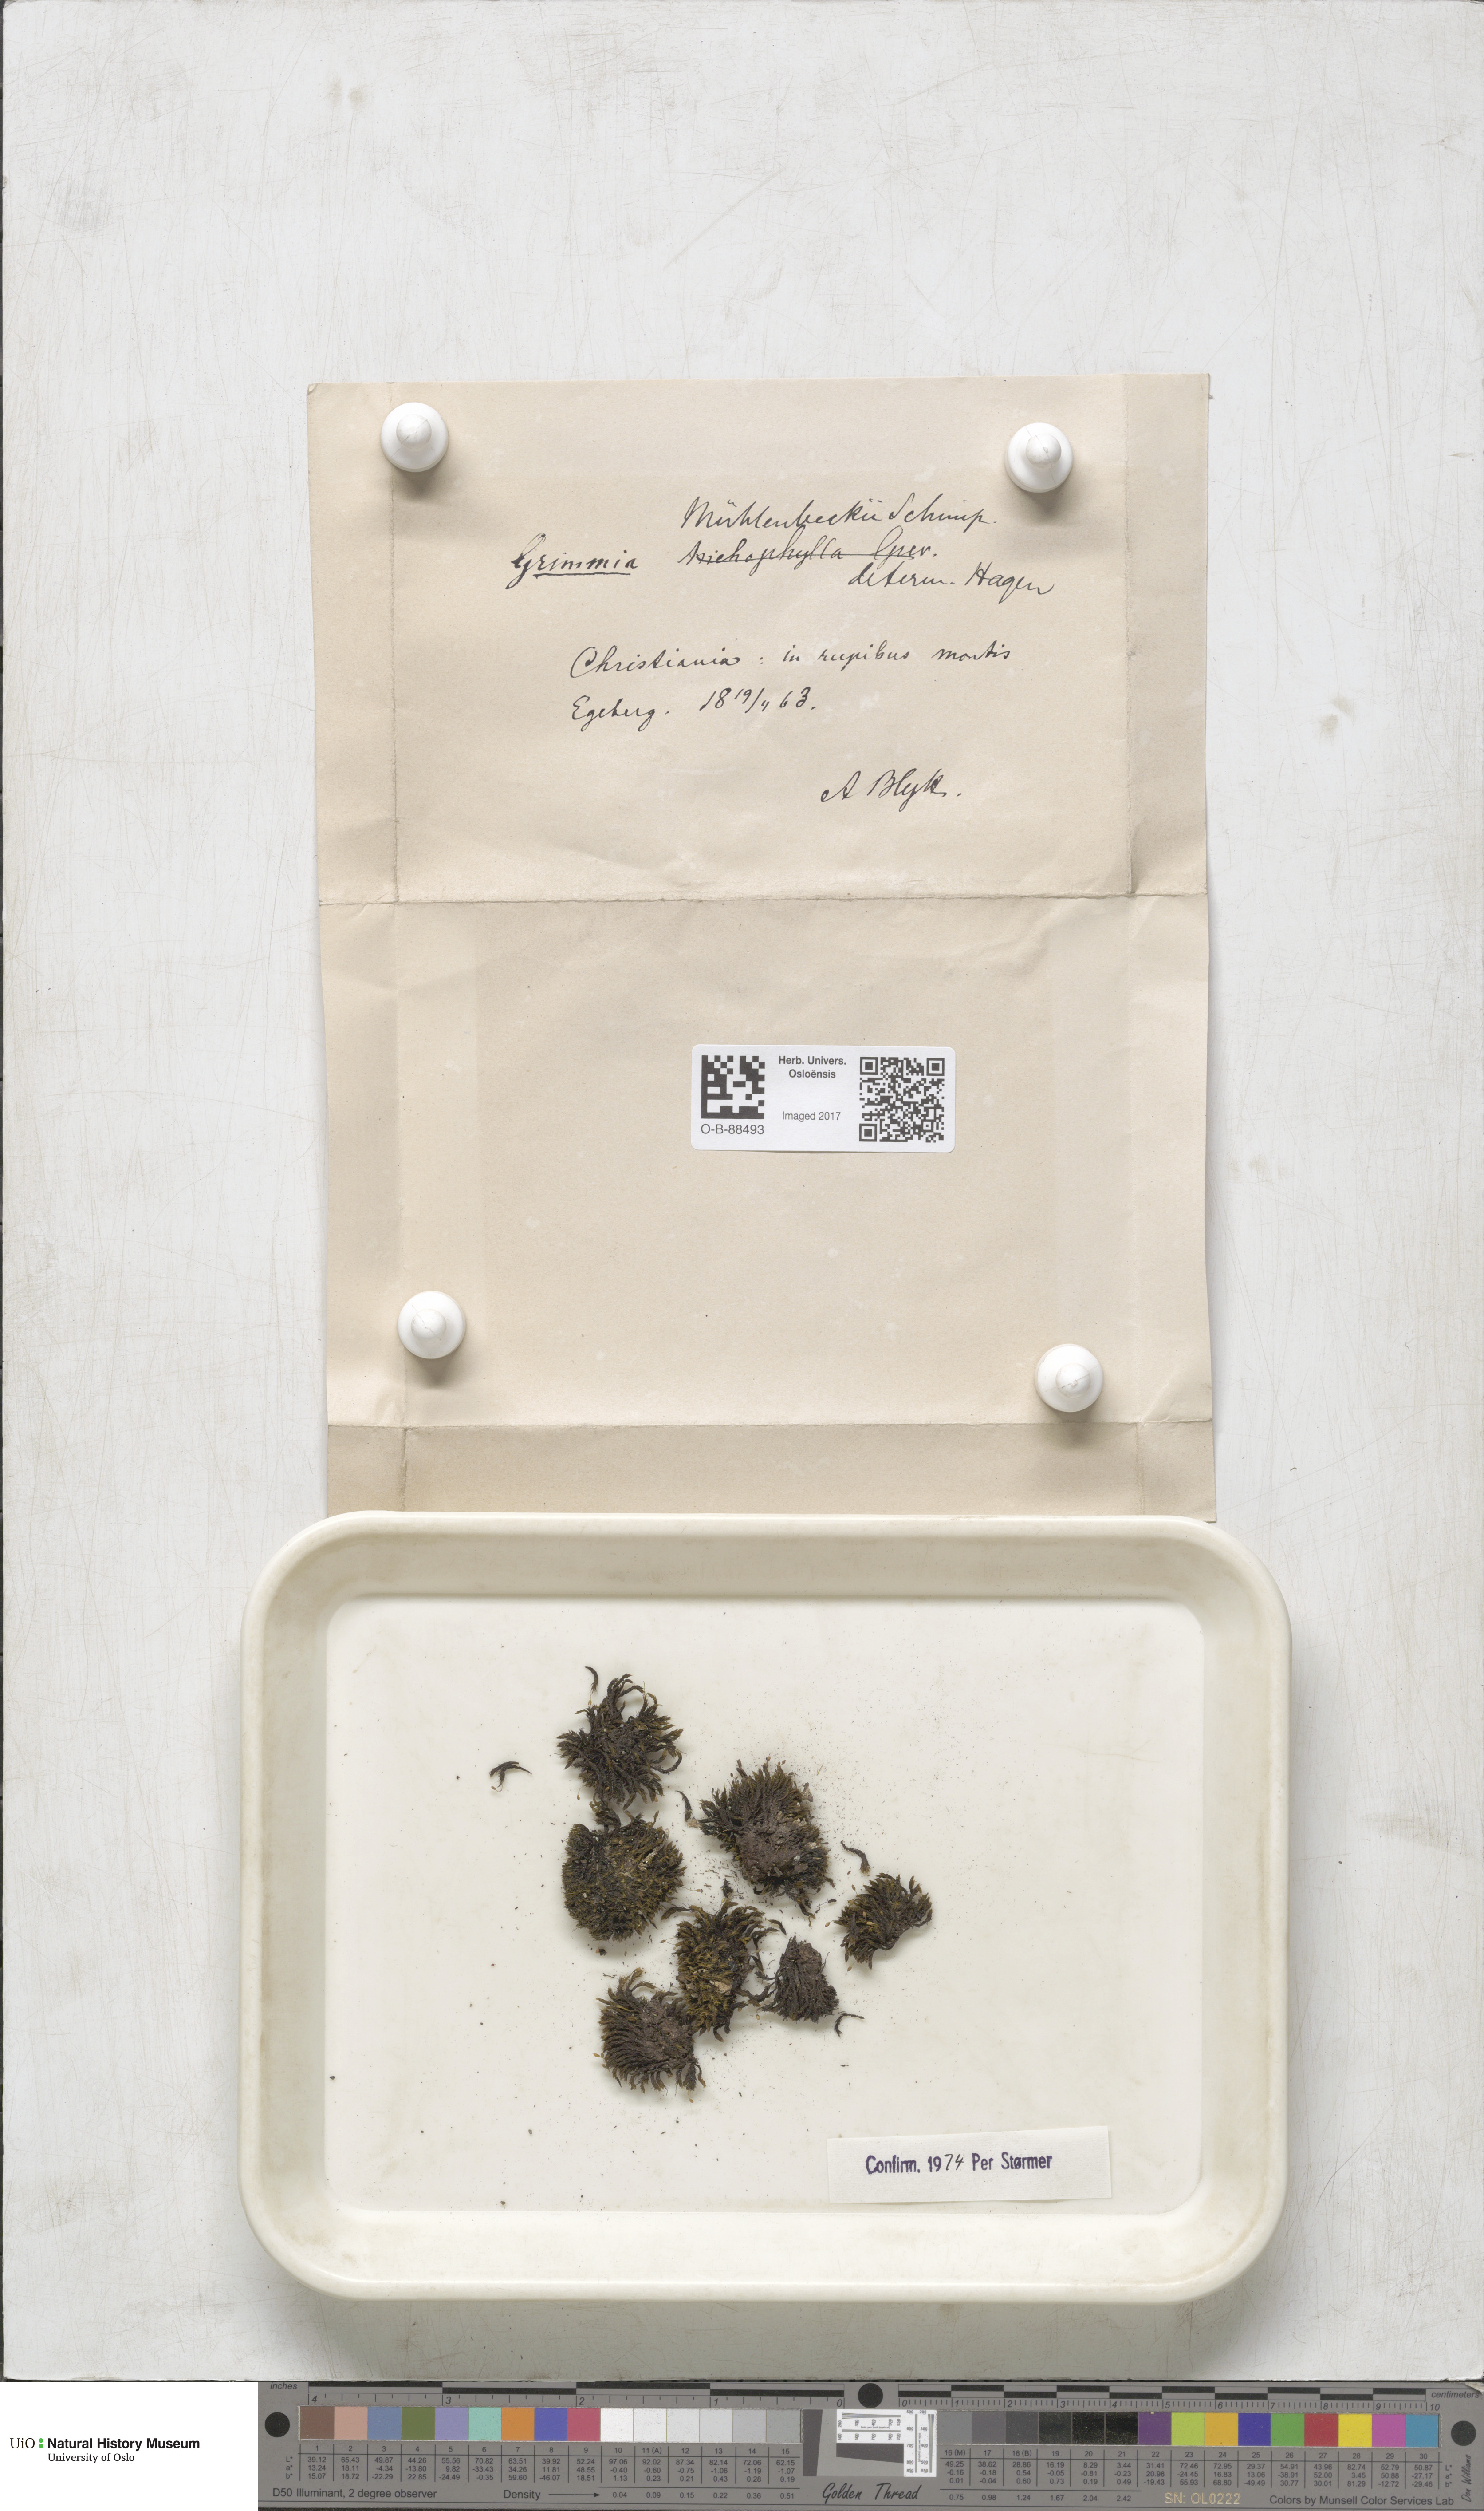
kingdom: Plantae
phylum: Bryophyta
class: Bryopsida
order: Grimmiales
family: Grimmiaceae
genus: Grimmia
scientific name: Grimmia trichophylla
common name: Hair-pointed grimmia
